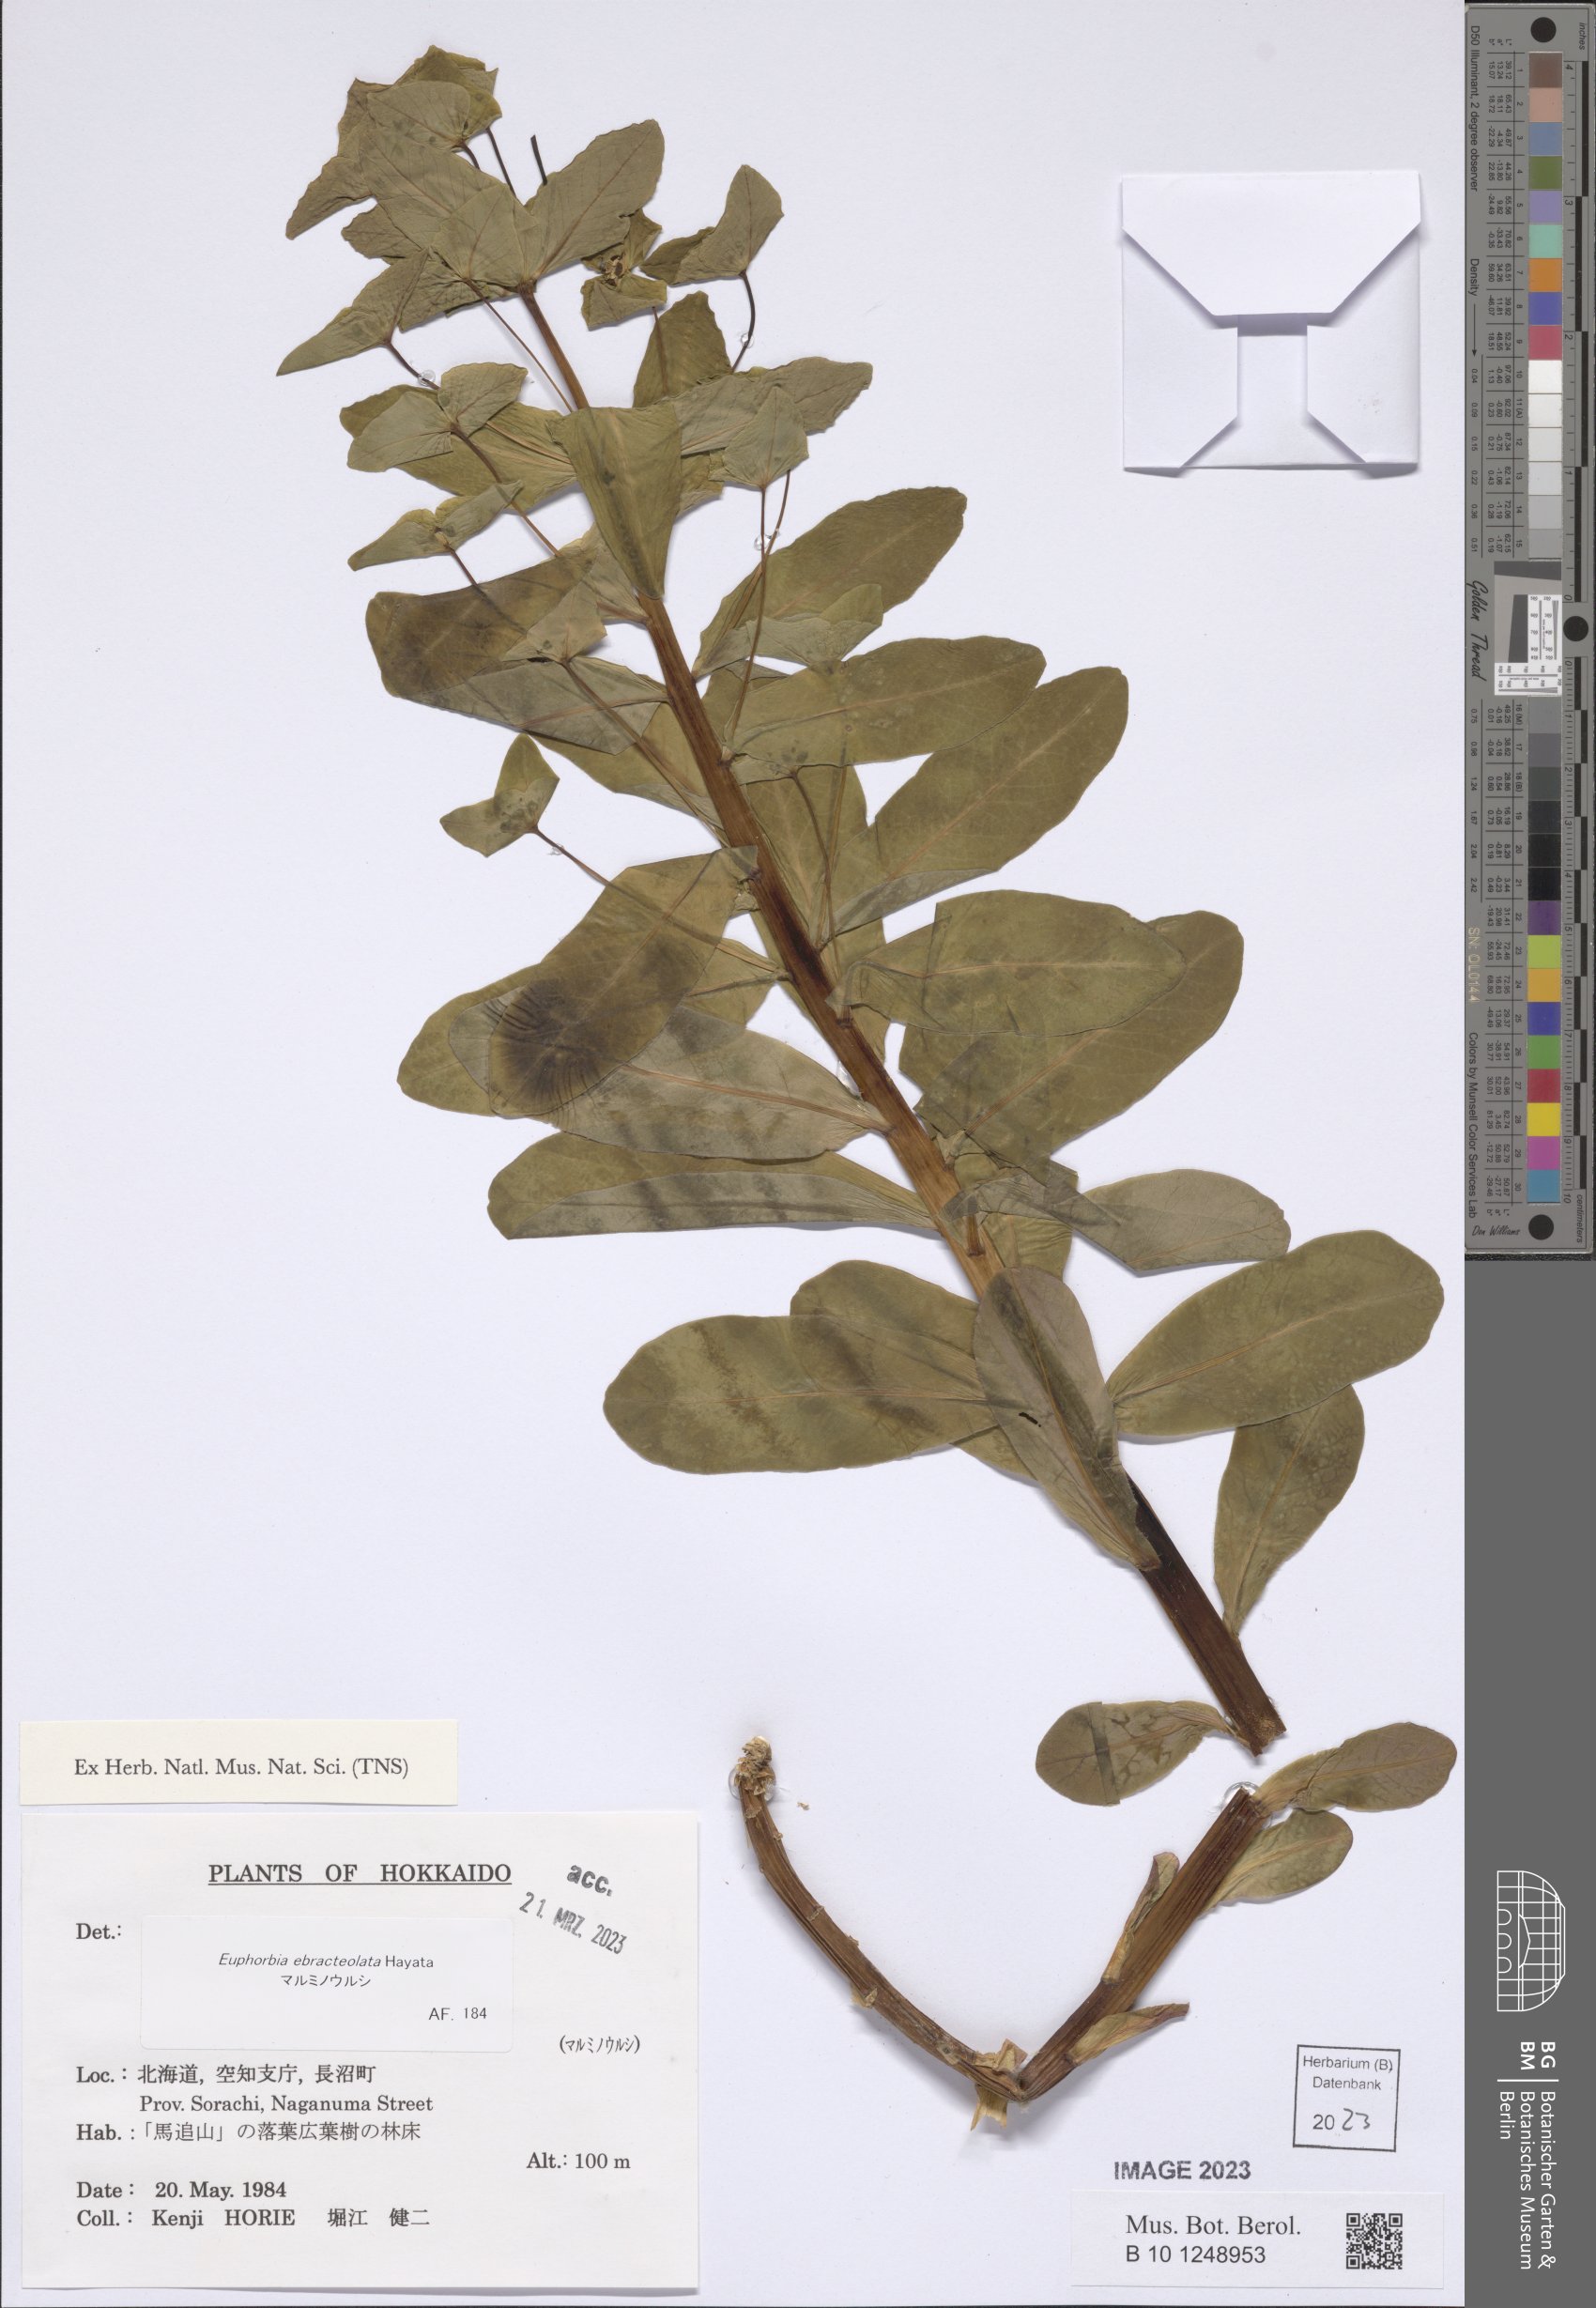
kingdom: Plantae
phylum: Tracheophyta
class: Magnoliopsida
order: Malpighiales
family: Euphorbiaceae
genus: Euphorbia
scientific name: Euphorbia ebracteolata
